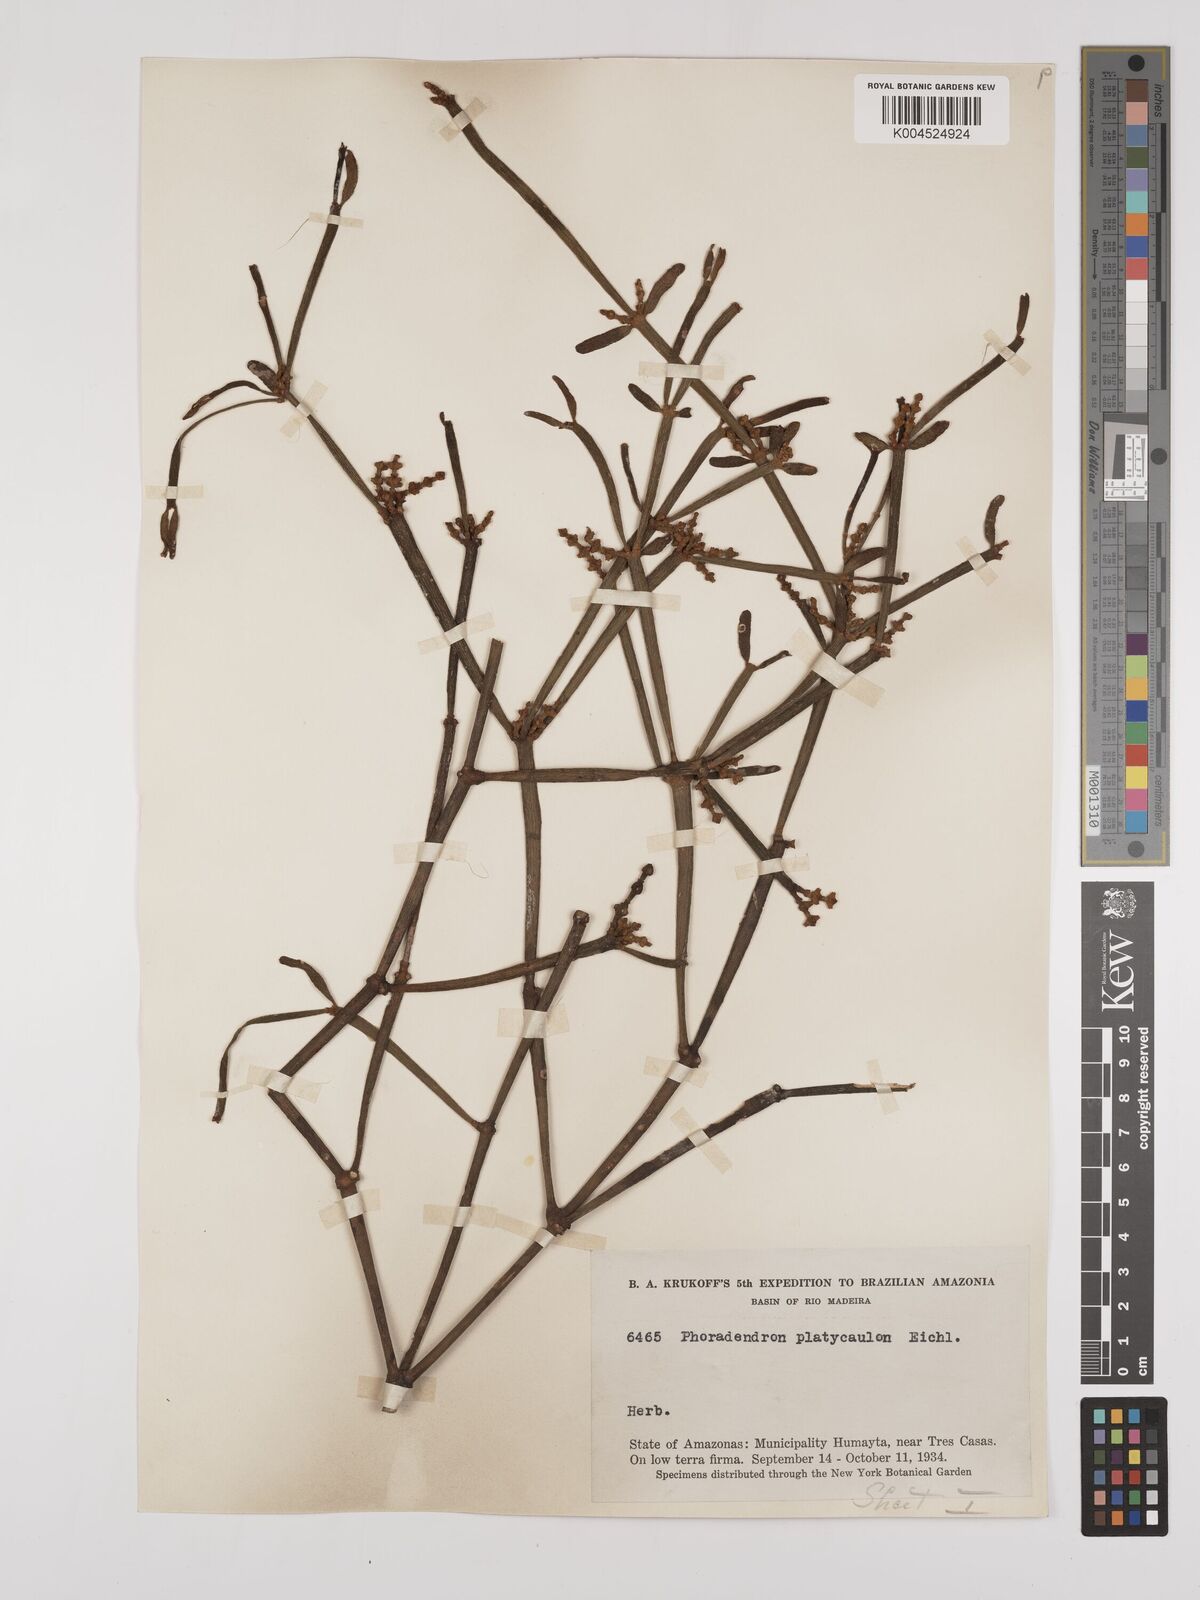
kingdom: Plantae
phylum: Tracheophyta
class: Magnoliopsida
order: Santalales
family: Viscaceae
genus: Phoradendron
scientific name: Phoradendron planiphyllum
